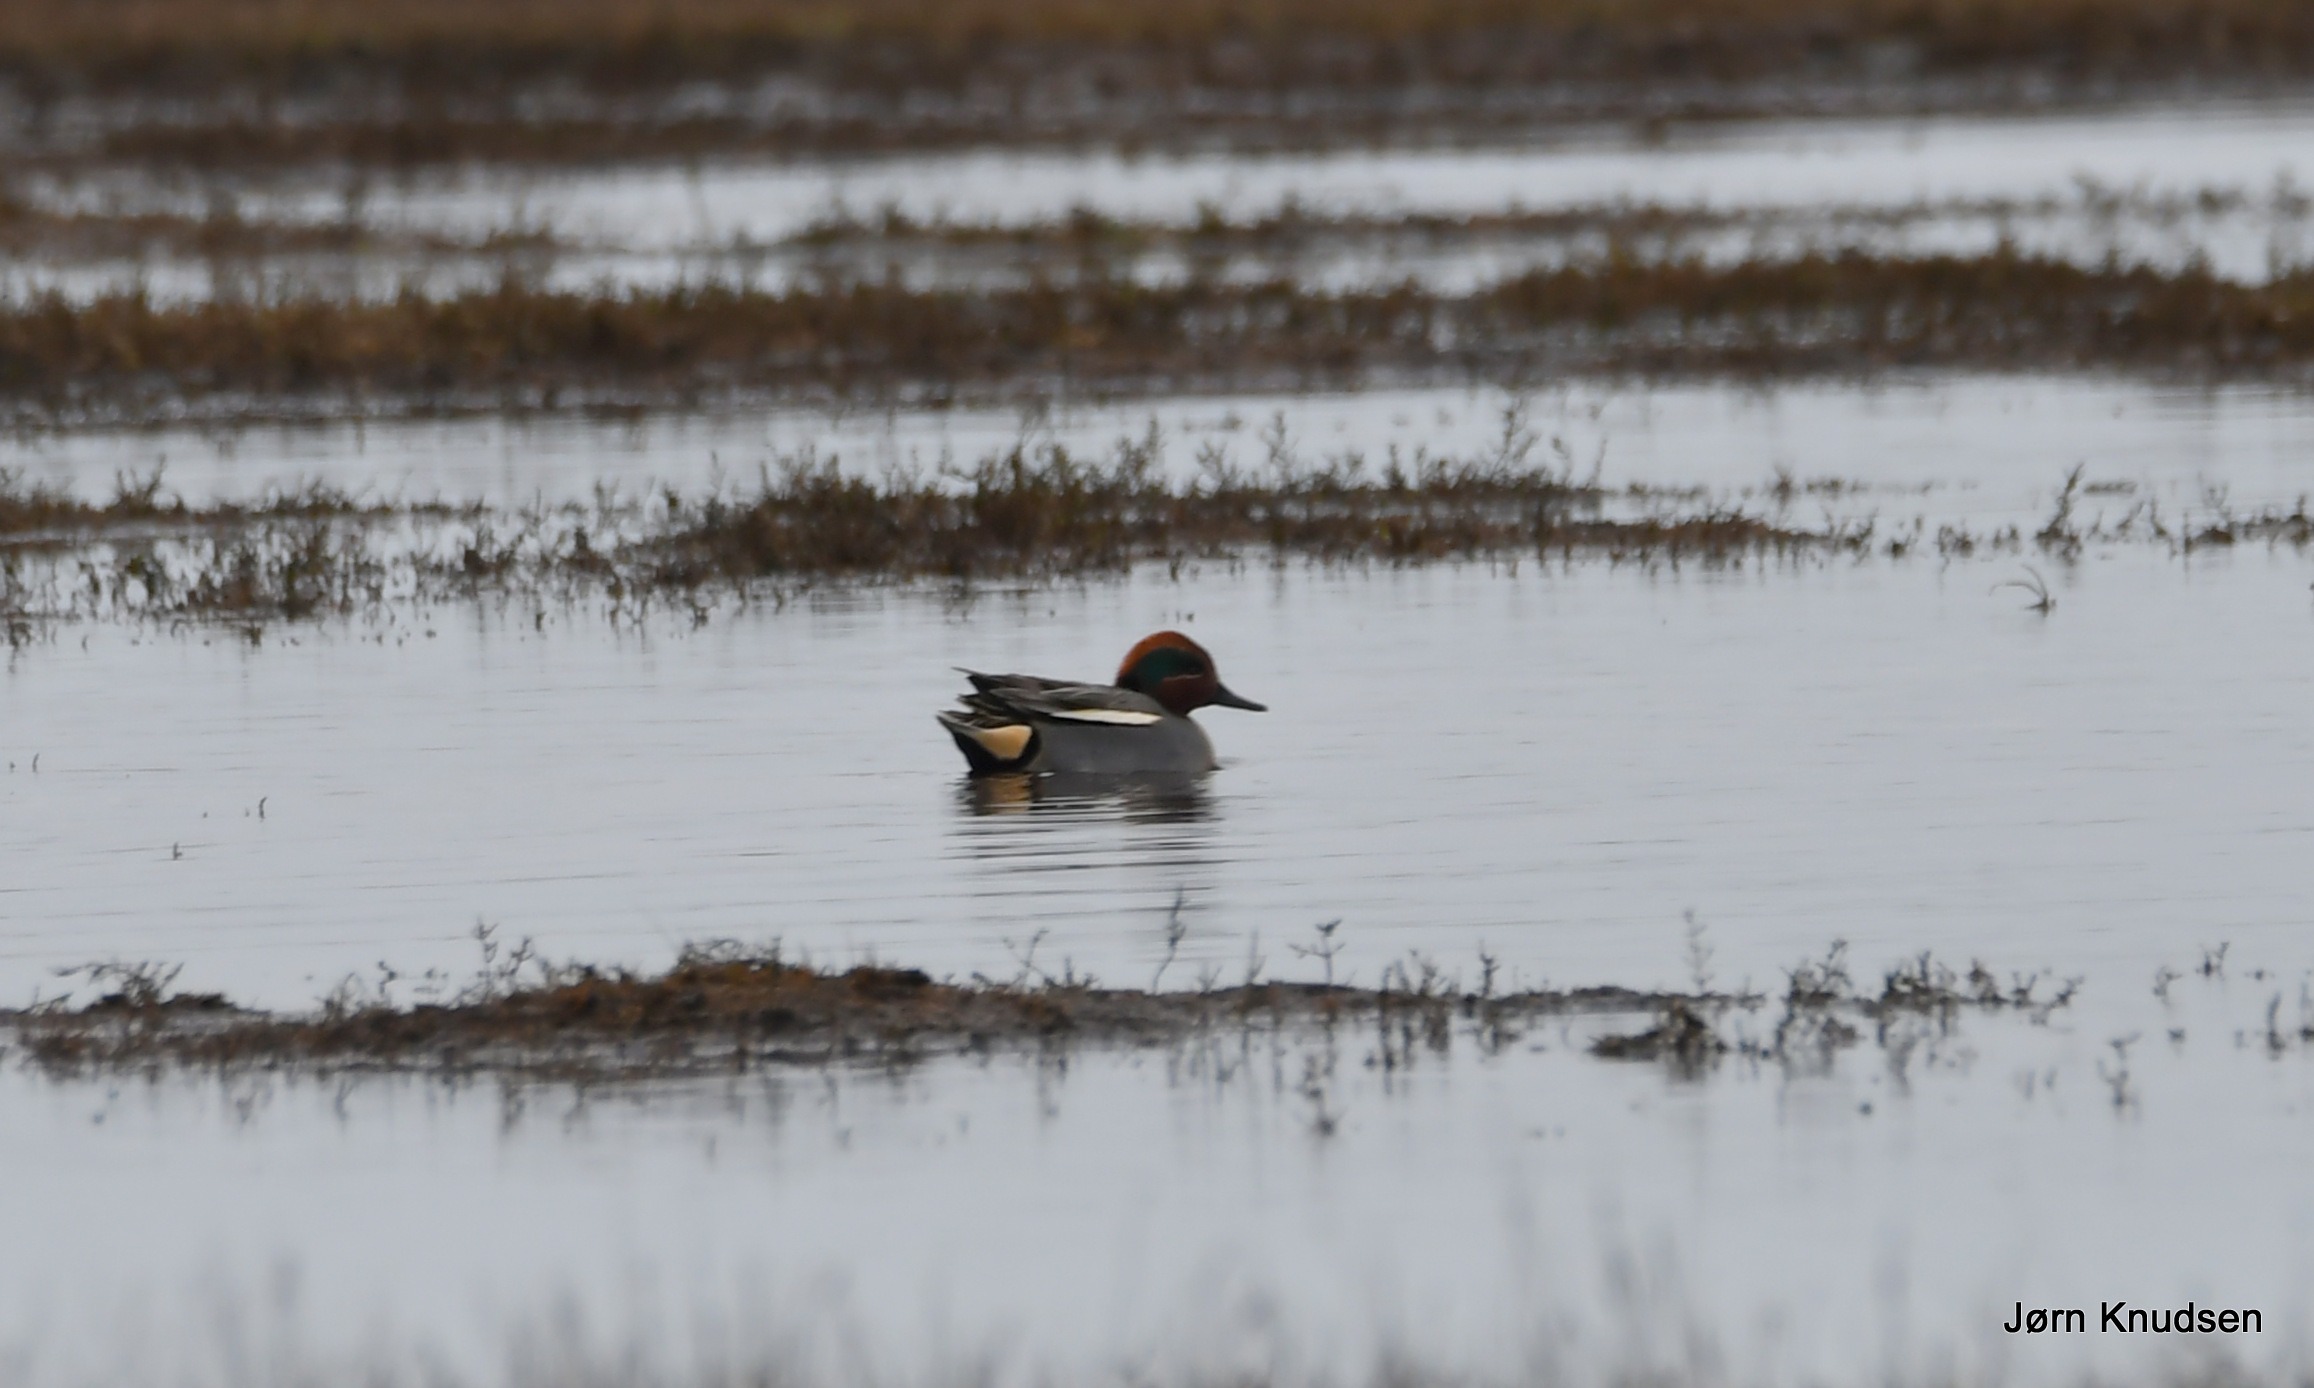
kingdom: Animalia
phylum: Chordata
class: Aves
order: Anseriformes
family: Anatidae
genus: Anas
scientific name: Anas crecca
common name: Krikand
